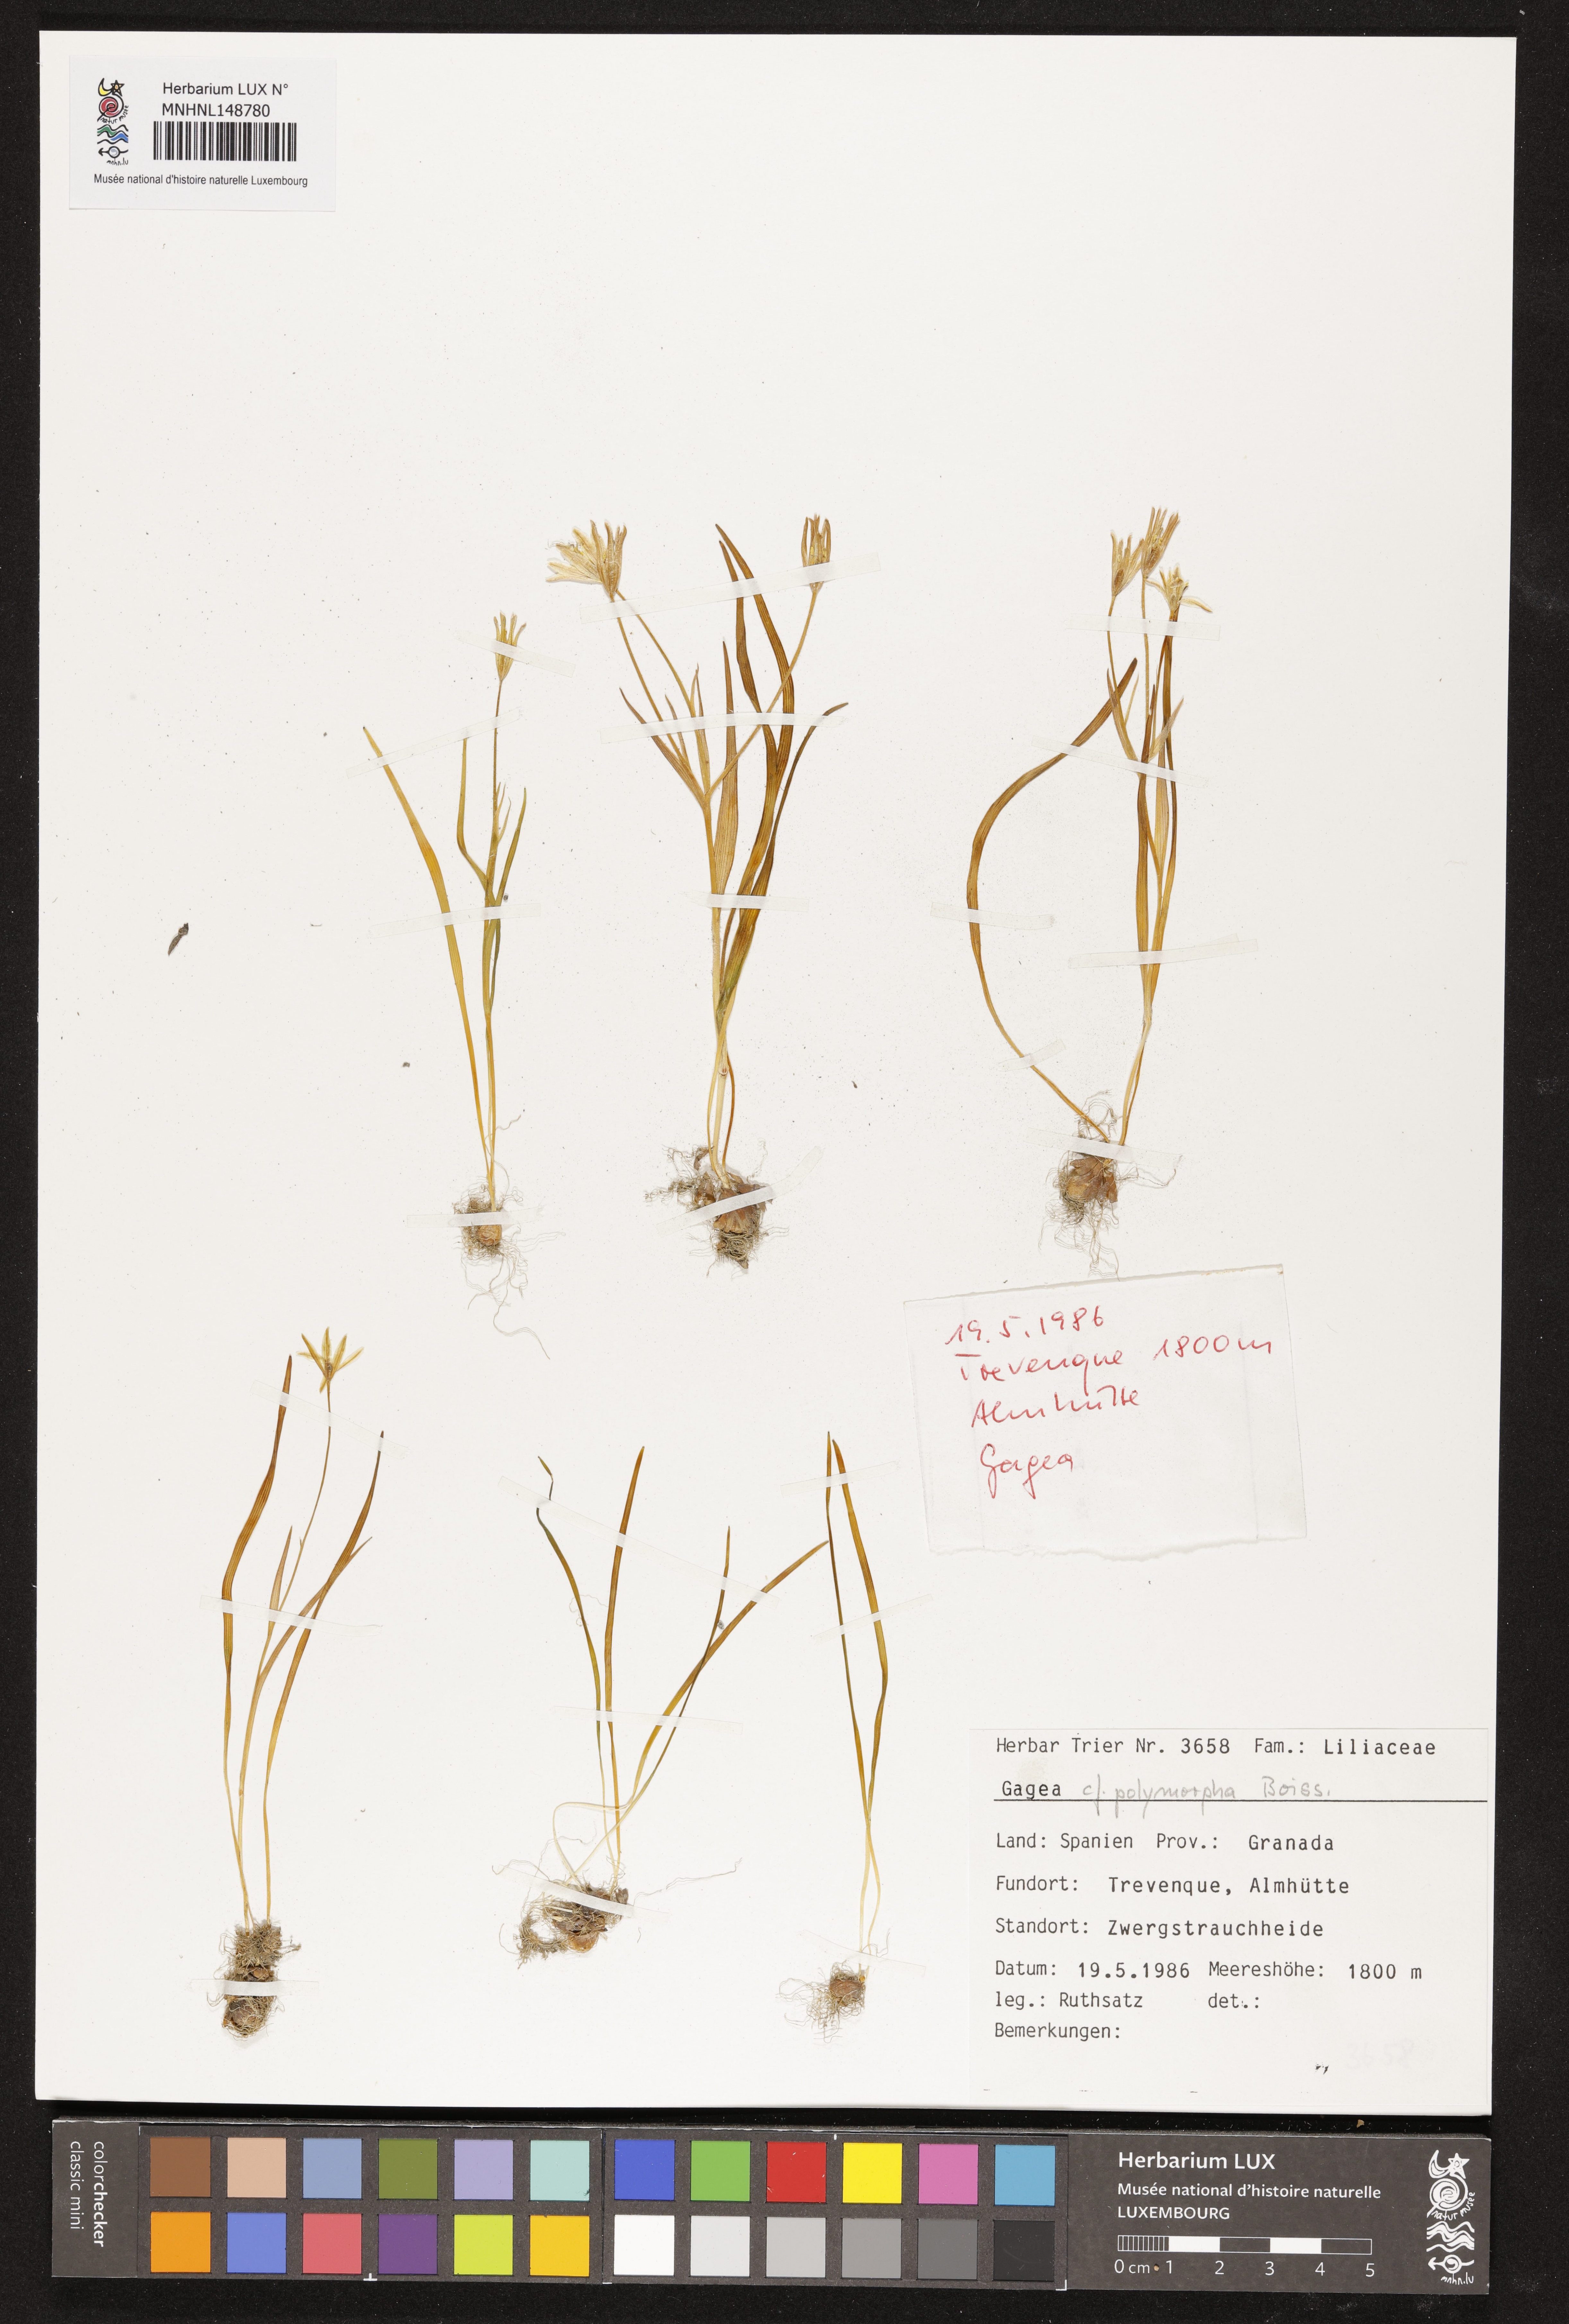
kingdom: Plantae
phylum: Tracheophyta
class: Liliopsida
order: Liliales
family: Liliaceae
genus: Gagea
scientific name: Gagea polymorpha
